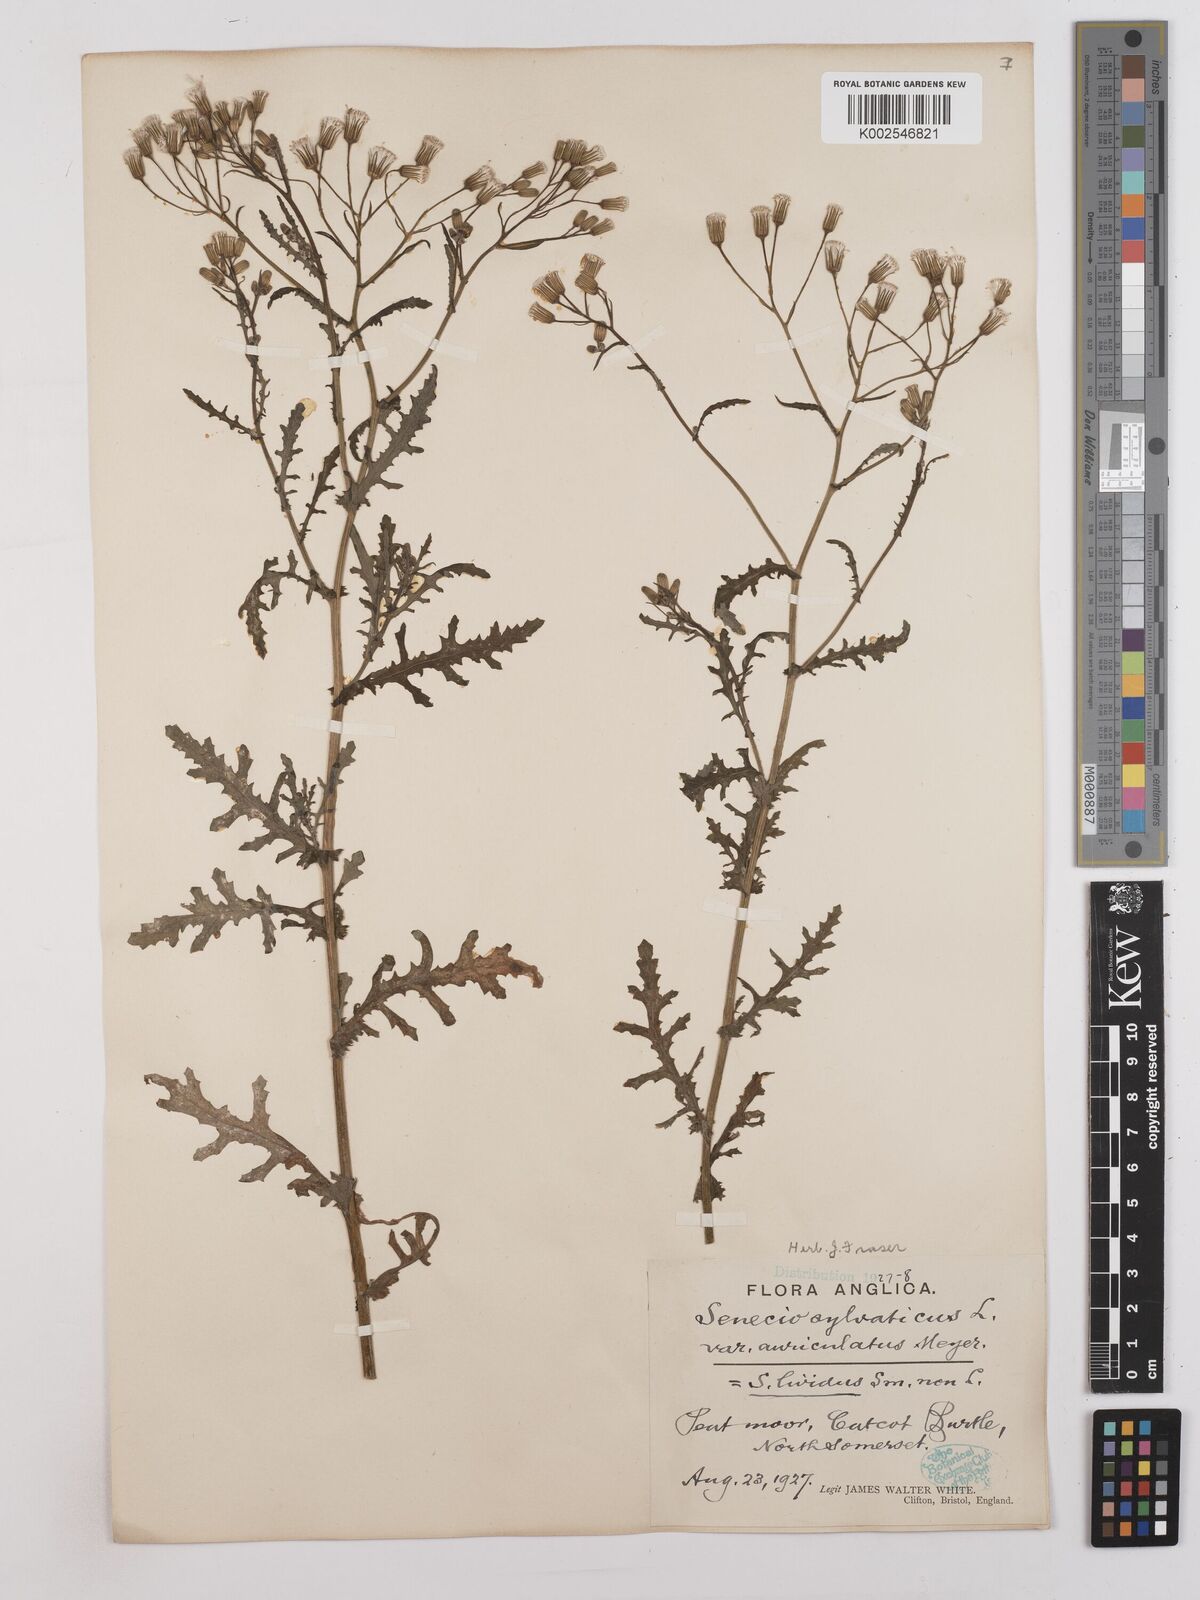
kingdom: Plantae
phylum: Tracheophyta
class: Magnoliopsida
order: Asterales
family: Asteraceae
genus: Senecio
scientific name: Senecio sylvaticus
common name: Woodland ragwort
